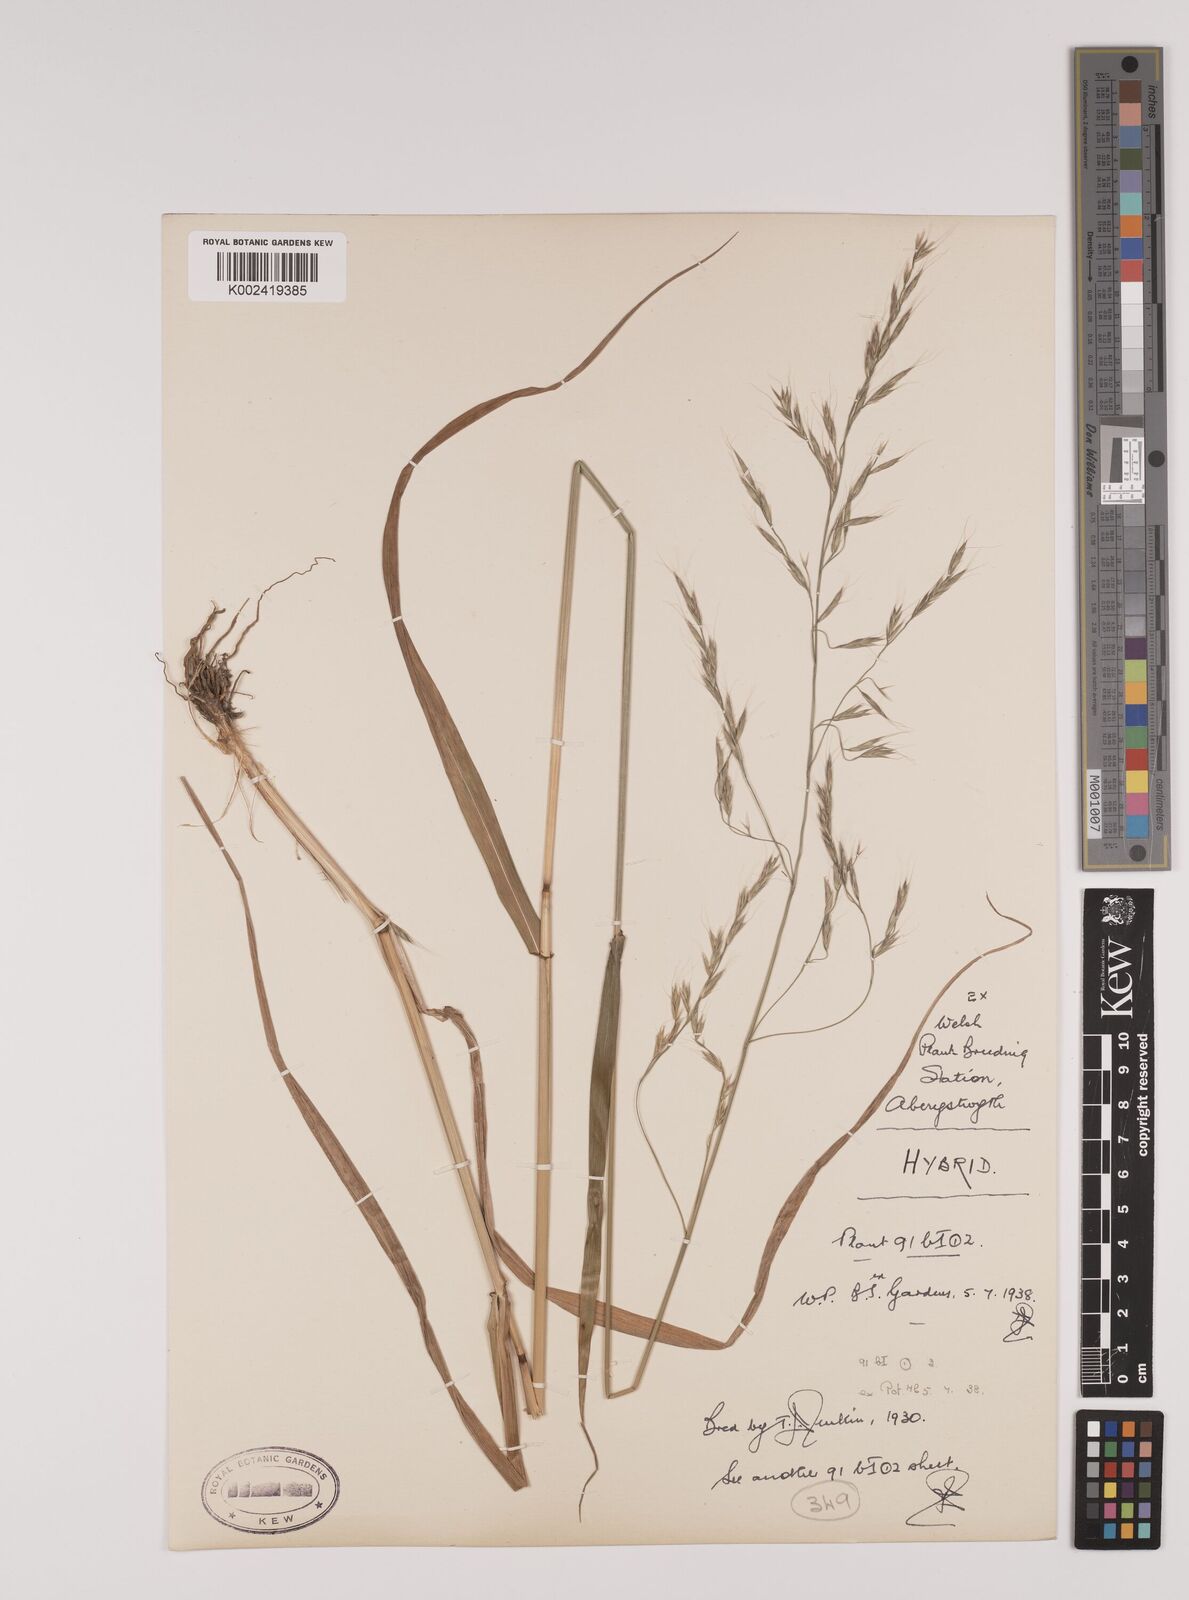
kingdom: Plantae
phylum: Tracheophyta
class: Liliopsida
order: Poales
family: Poaceae
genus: Lolium
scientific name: Lolium giganteum
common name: Giant fescue
